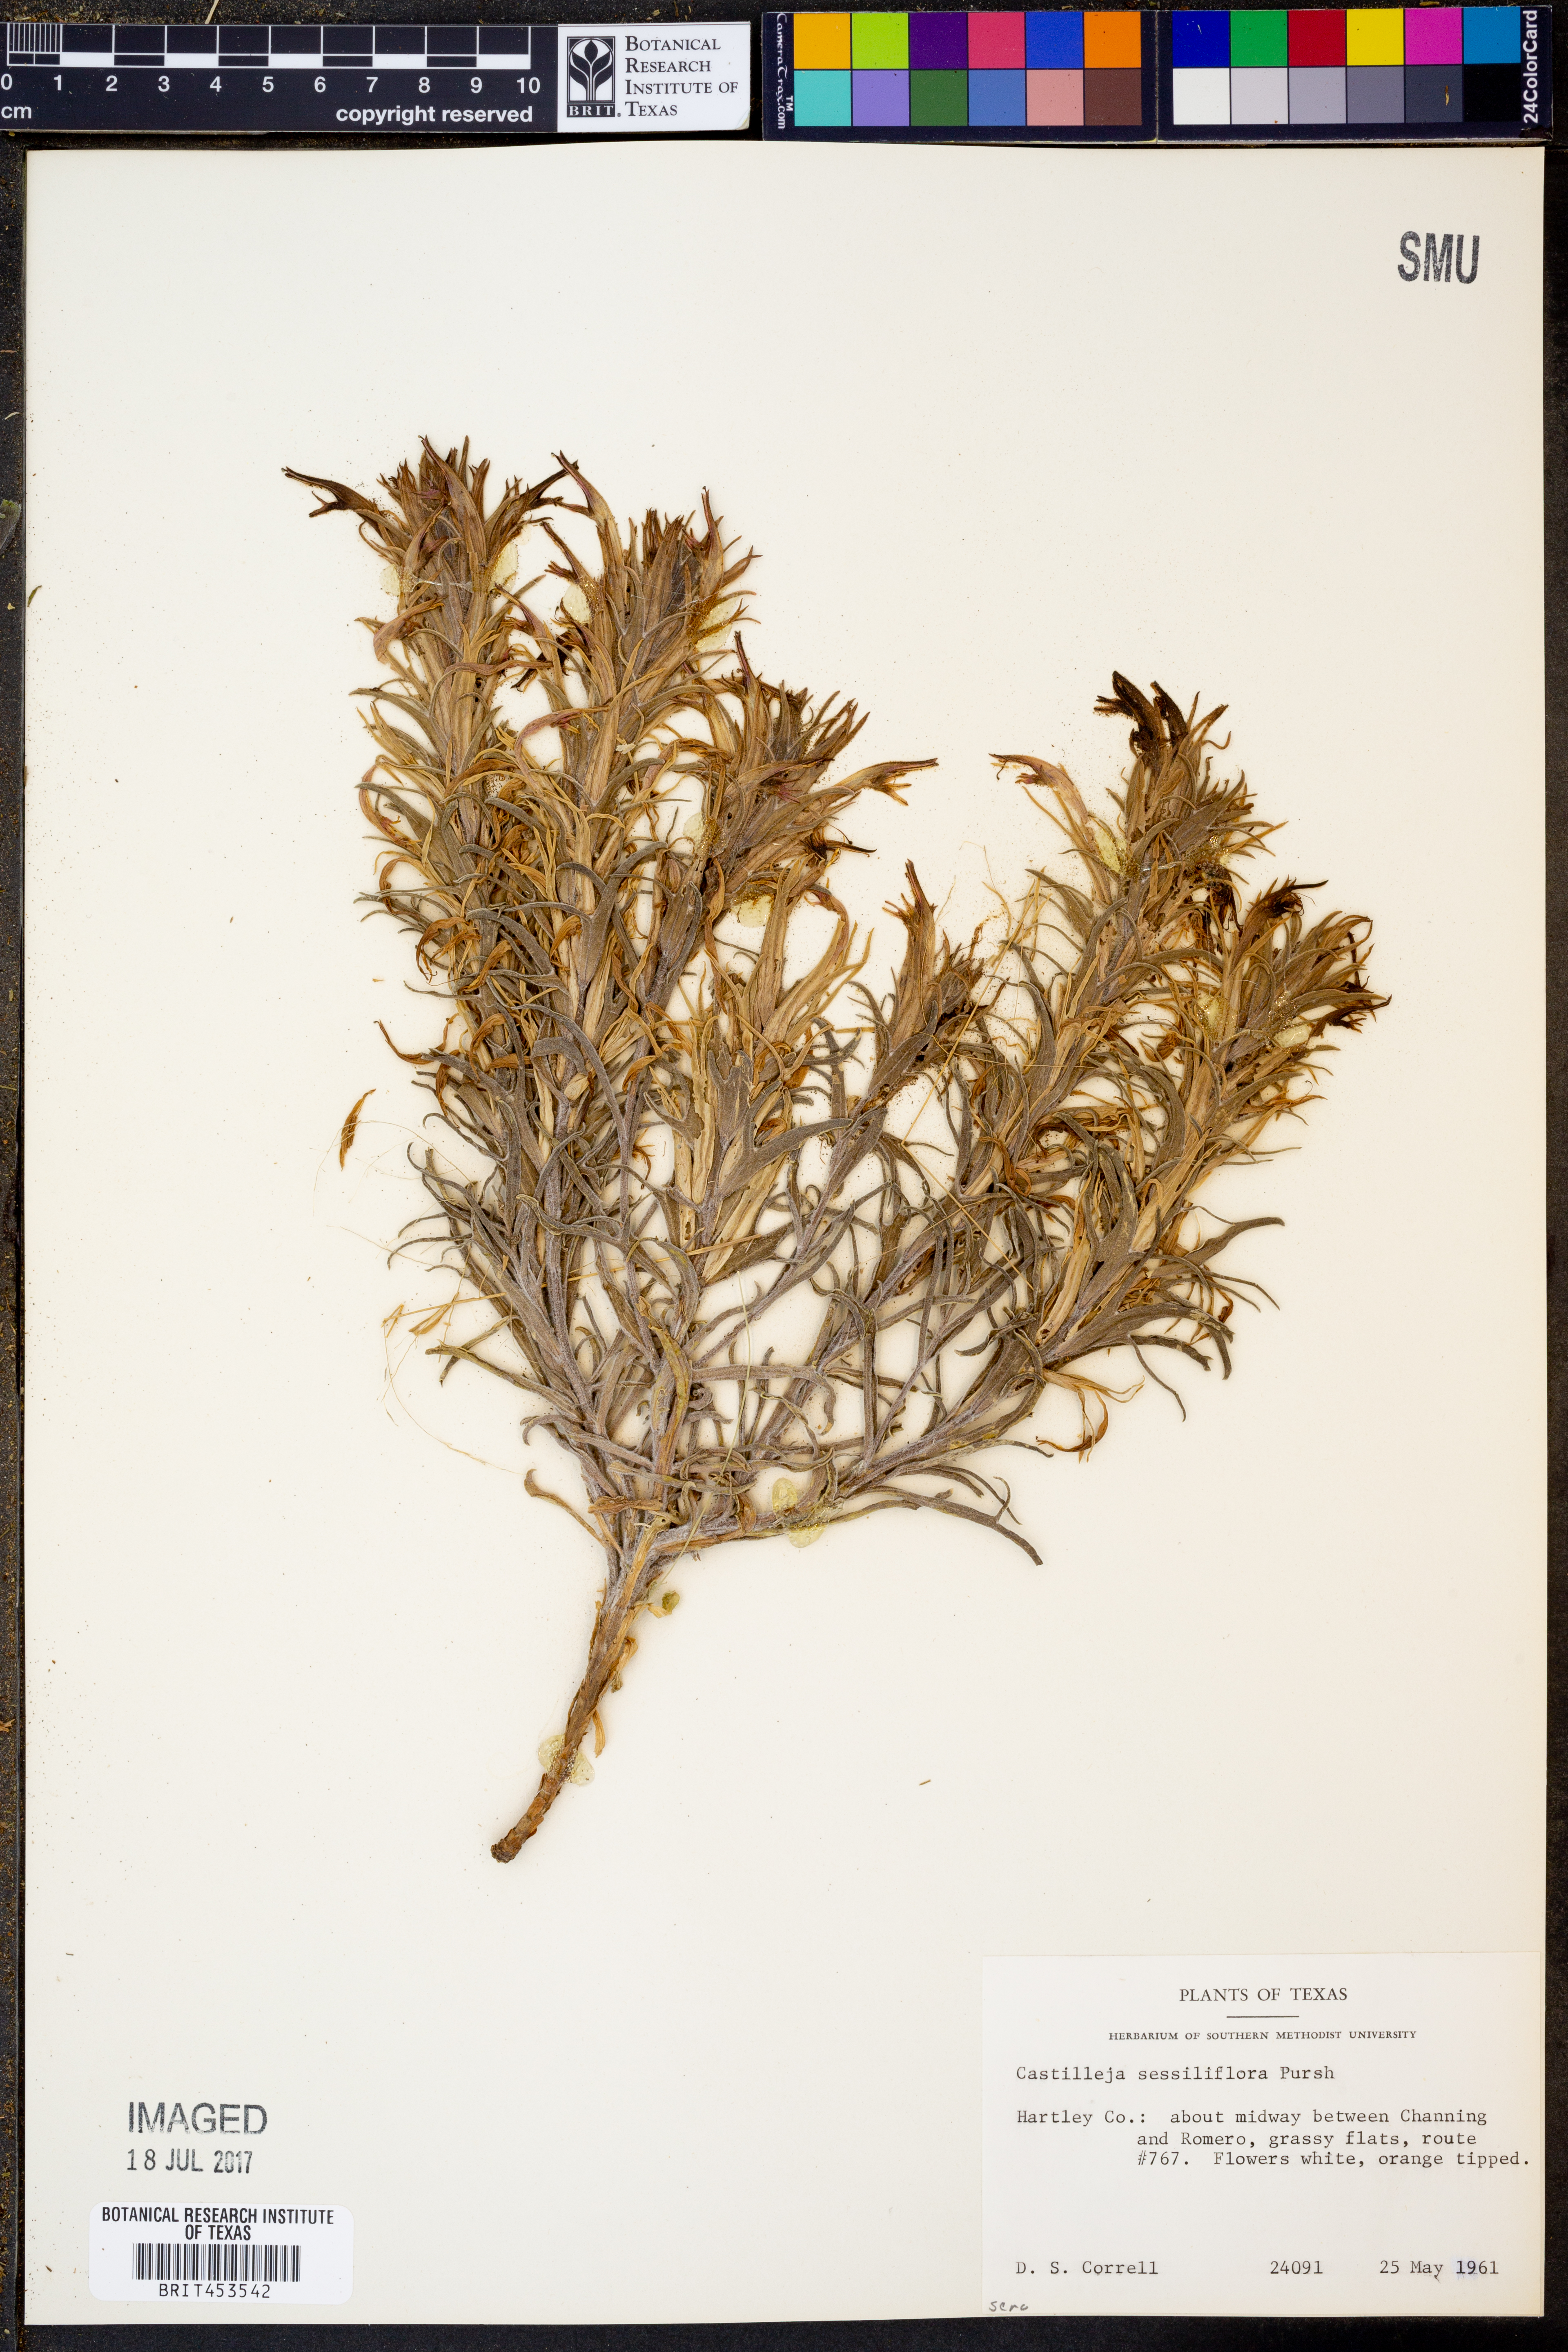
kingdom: Plantae
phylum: Tracheophyta
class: Magnoliopsida
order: Lamiales
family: Orobanchaceae
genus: Castilleja
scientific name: Castilleja sessiliflora
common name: Downy paintbrush
